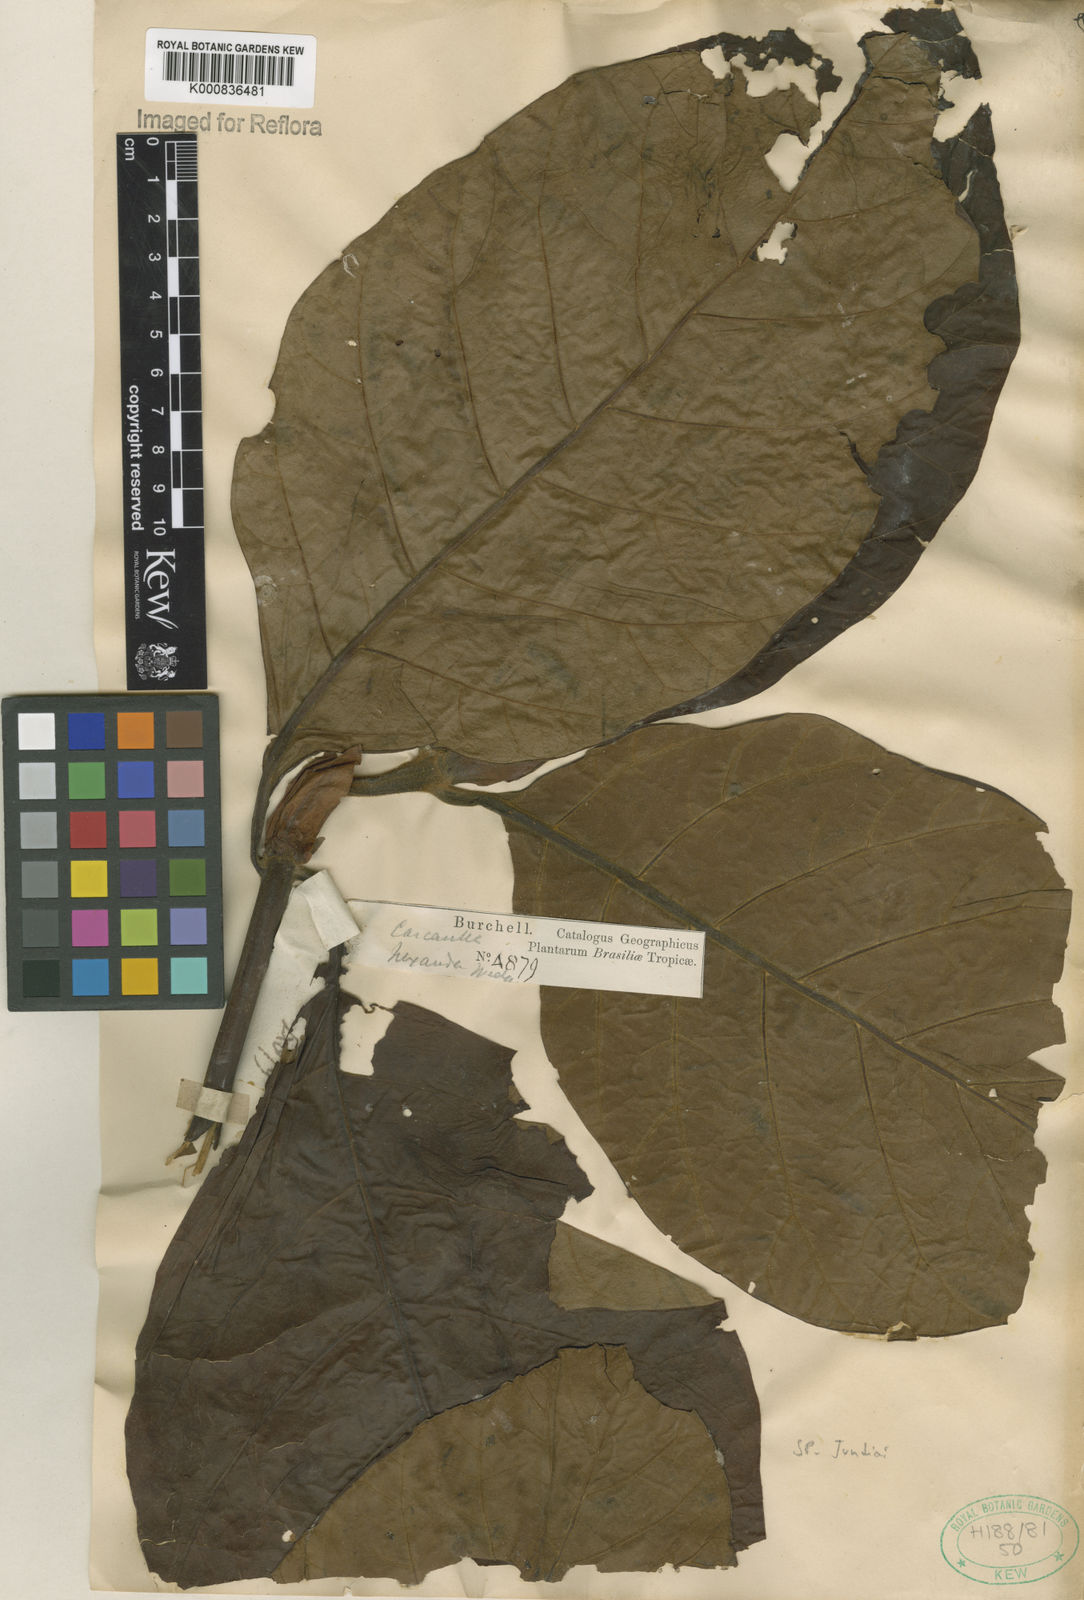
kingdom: Plantae
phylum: Tracheophyta
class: Magnoliopsida
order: Gentianales
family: Rubiaceae
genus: Ladenbergia
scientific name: Ladenbergia hexandra
